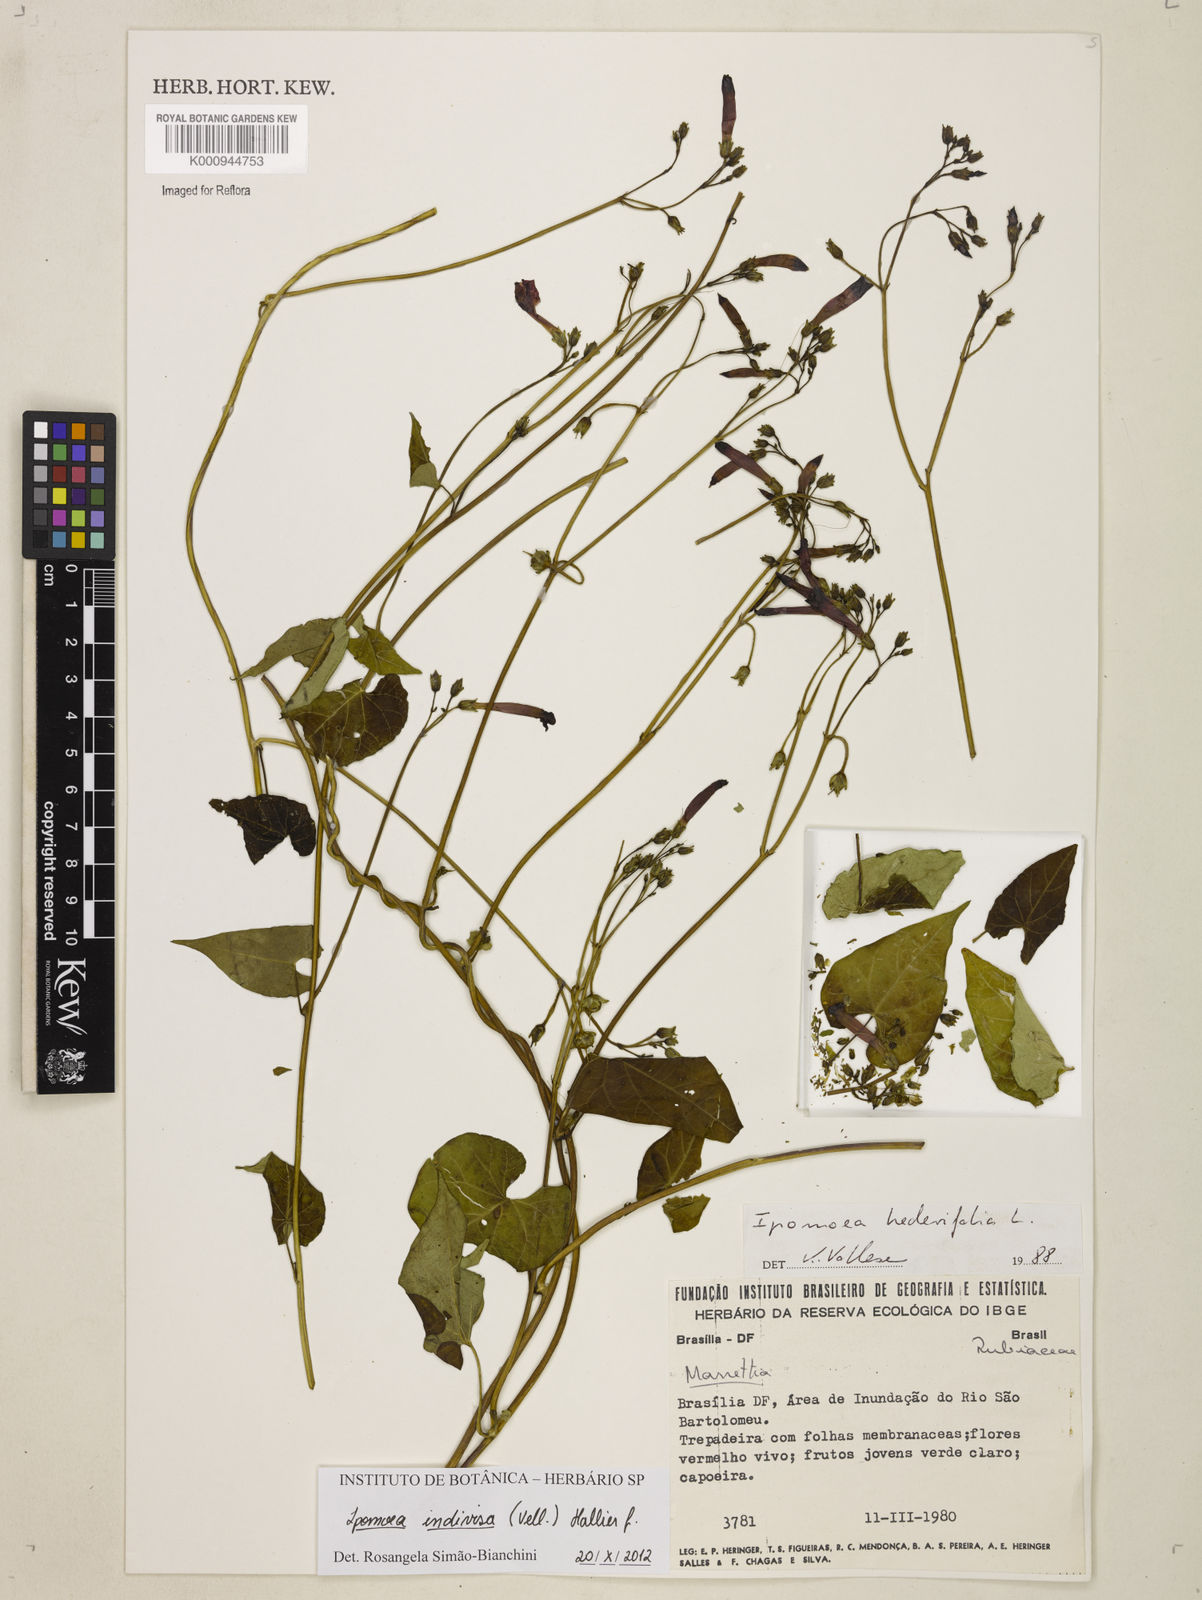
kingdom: Plantae
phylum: Tracheophyta
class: Magnoliopsida
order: Solanales
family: Convolvulaceae
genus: Ipomoea
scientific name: Ipomoea indivisa
